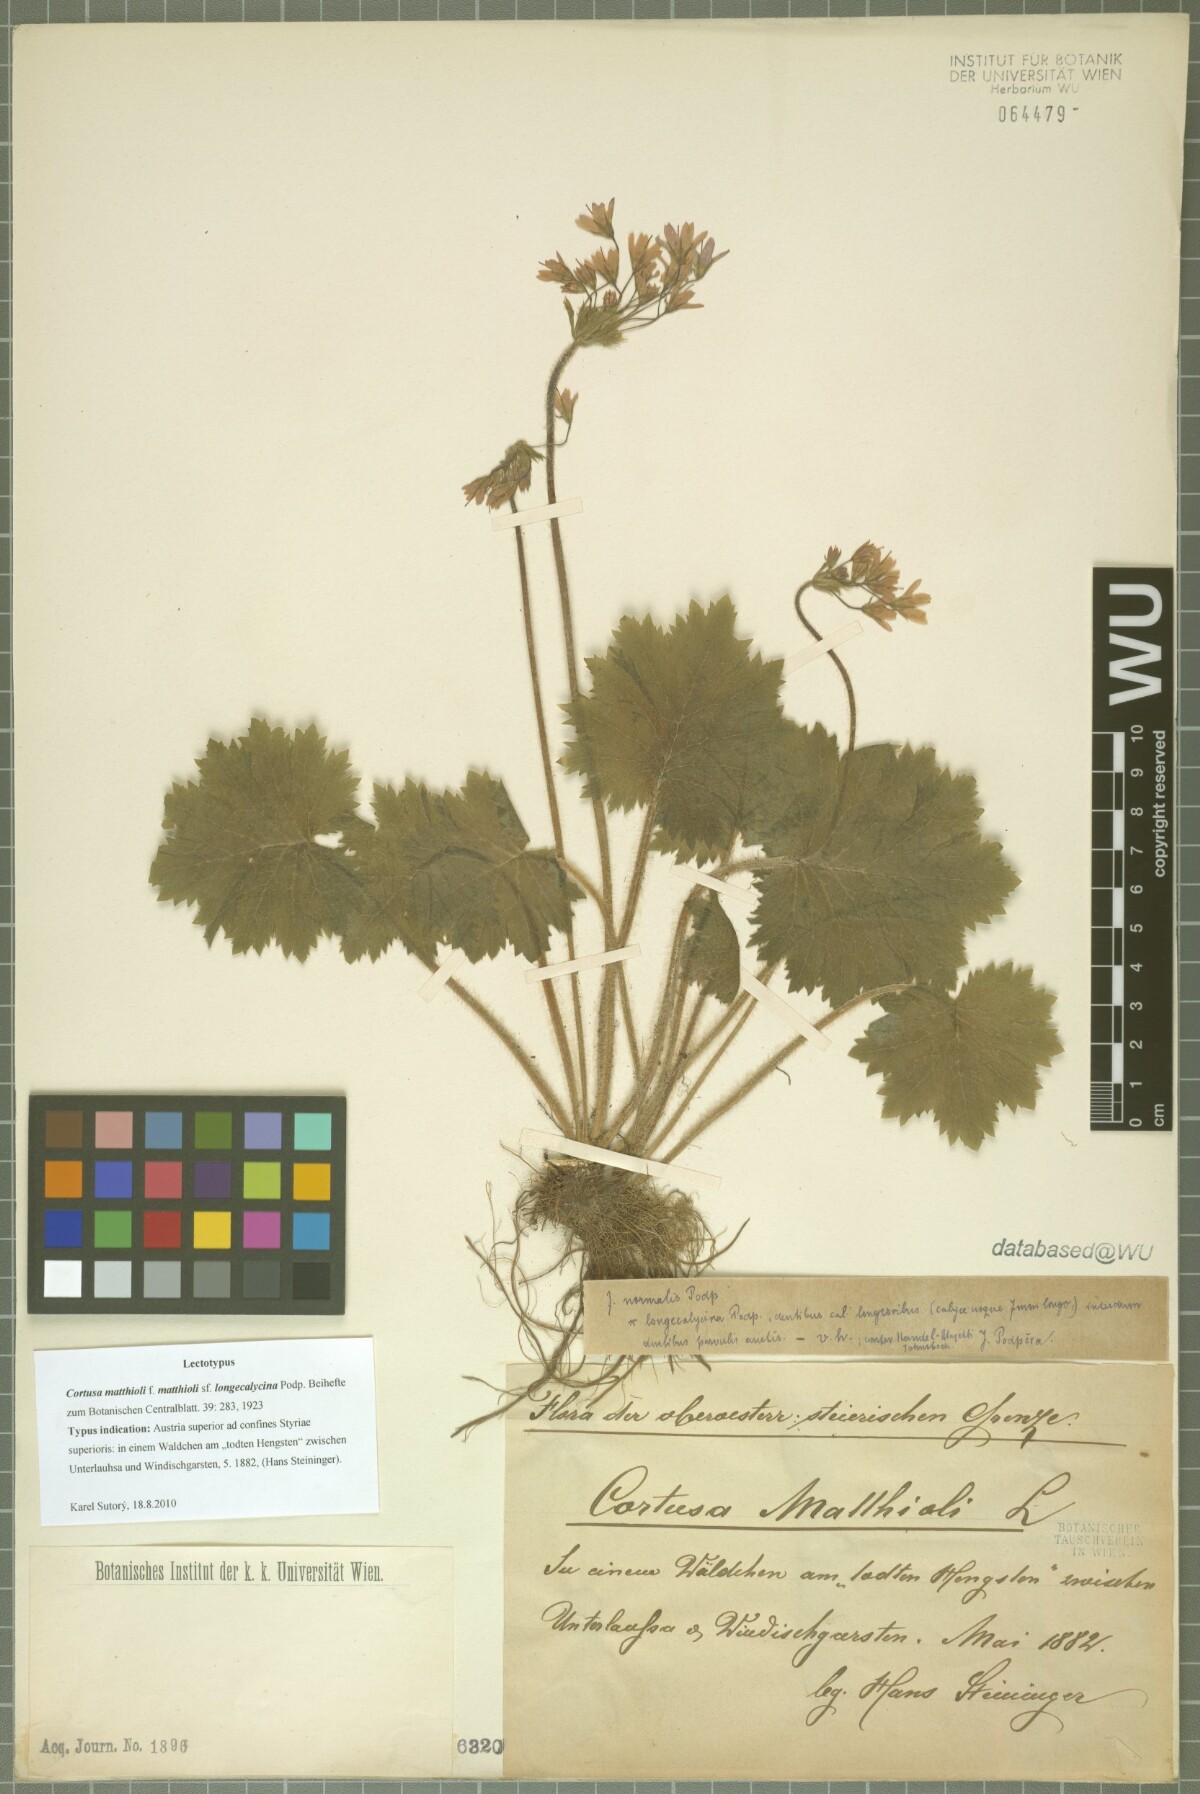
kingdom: Plantae
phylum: Tracheophyta
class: Magnoliopsida
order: Ericales
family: Primulaceae
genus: Primula
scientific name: Primula matthioli
